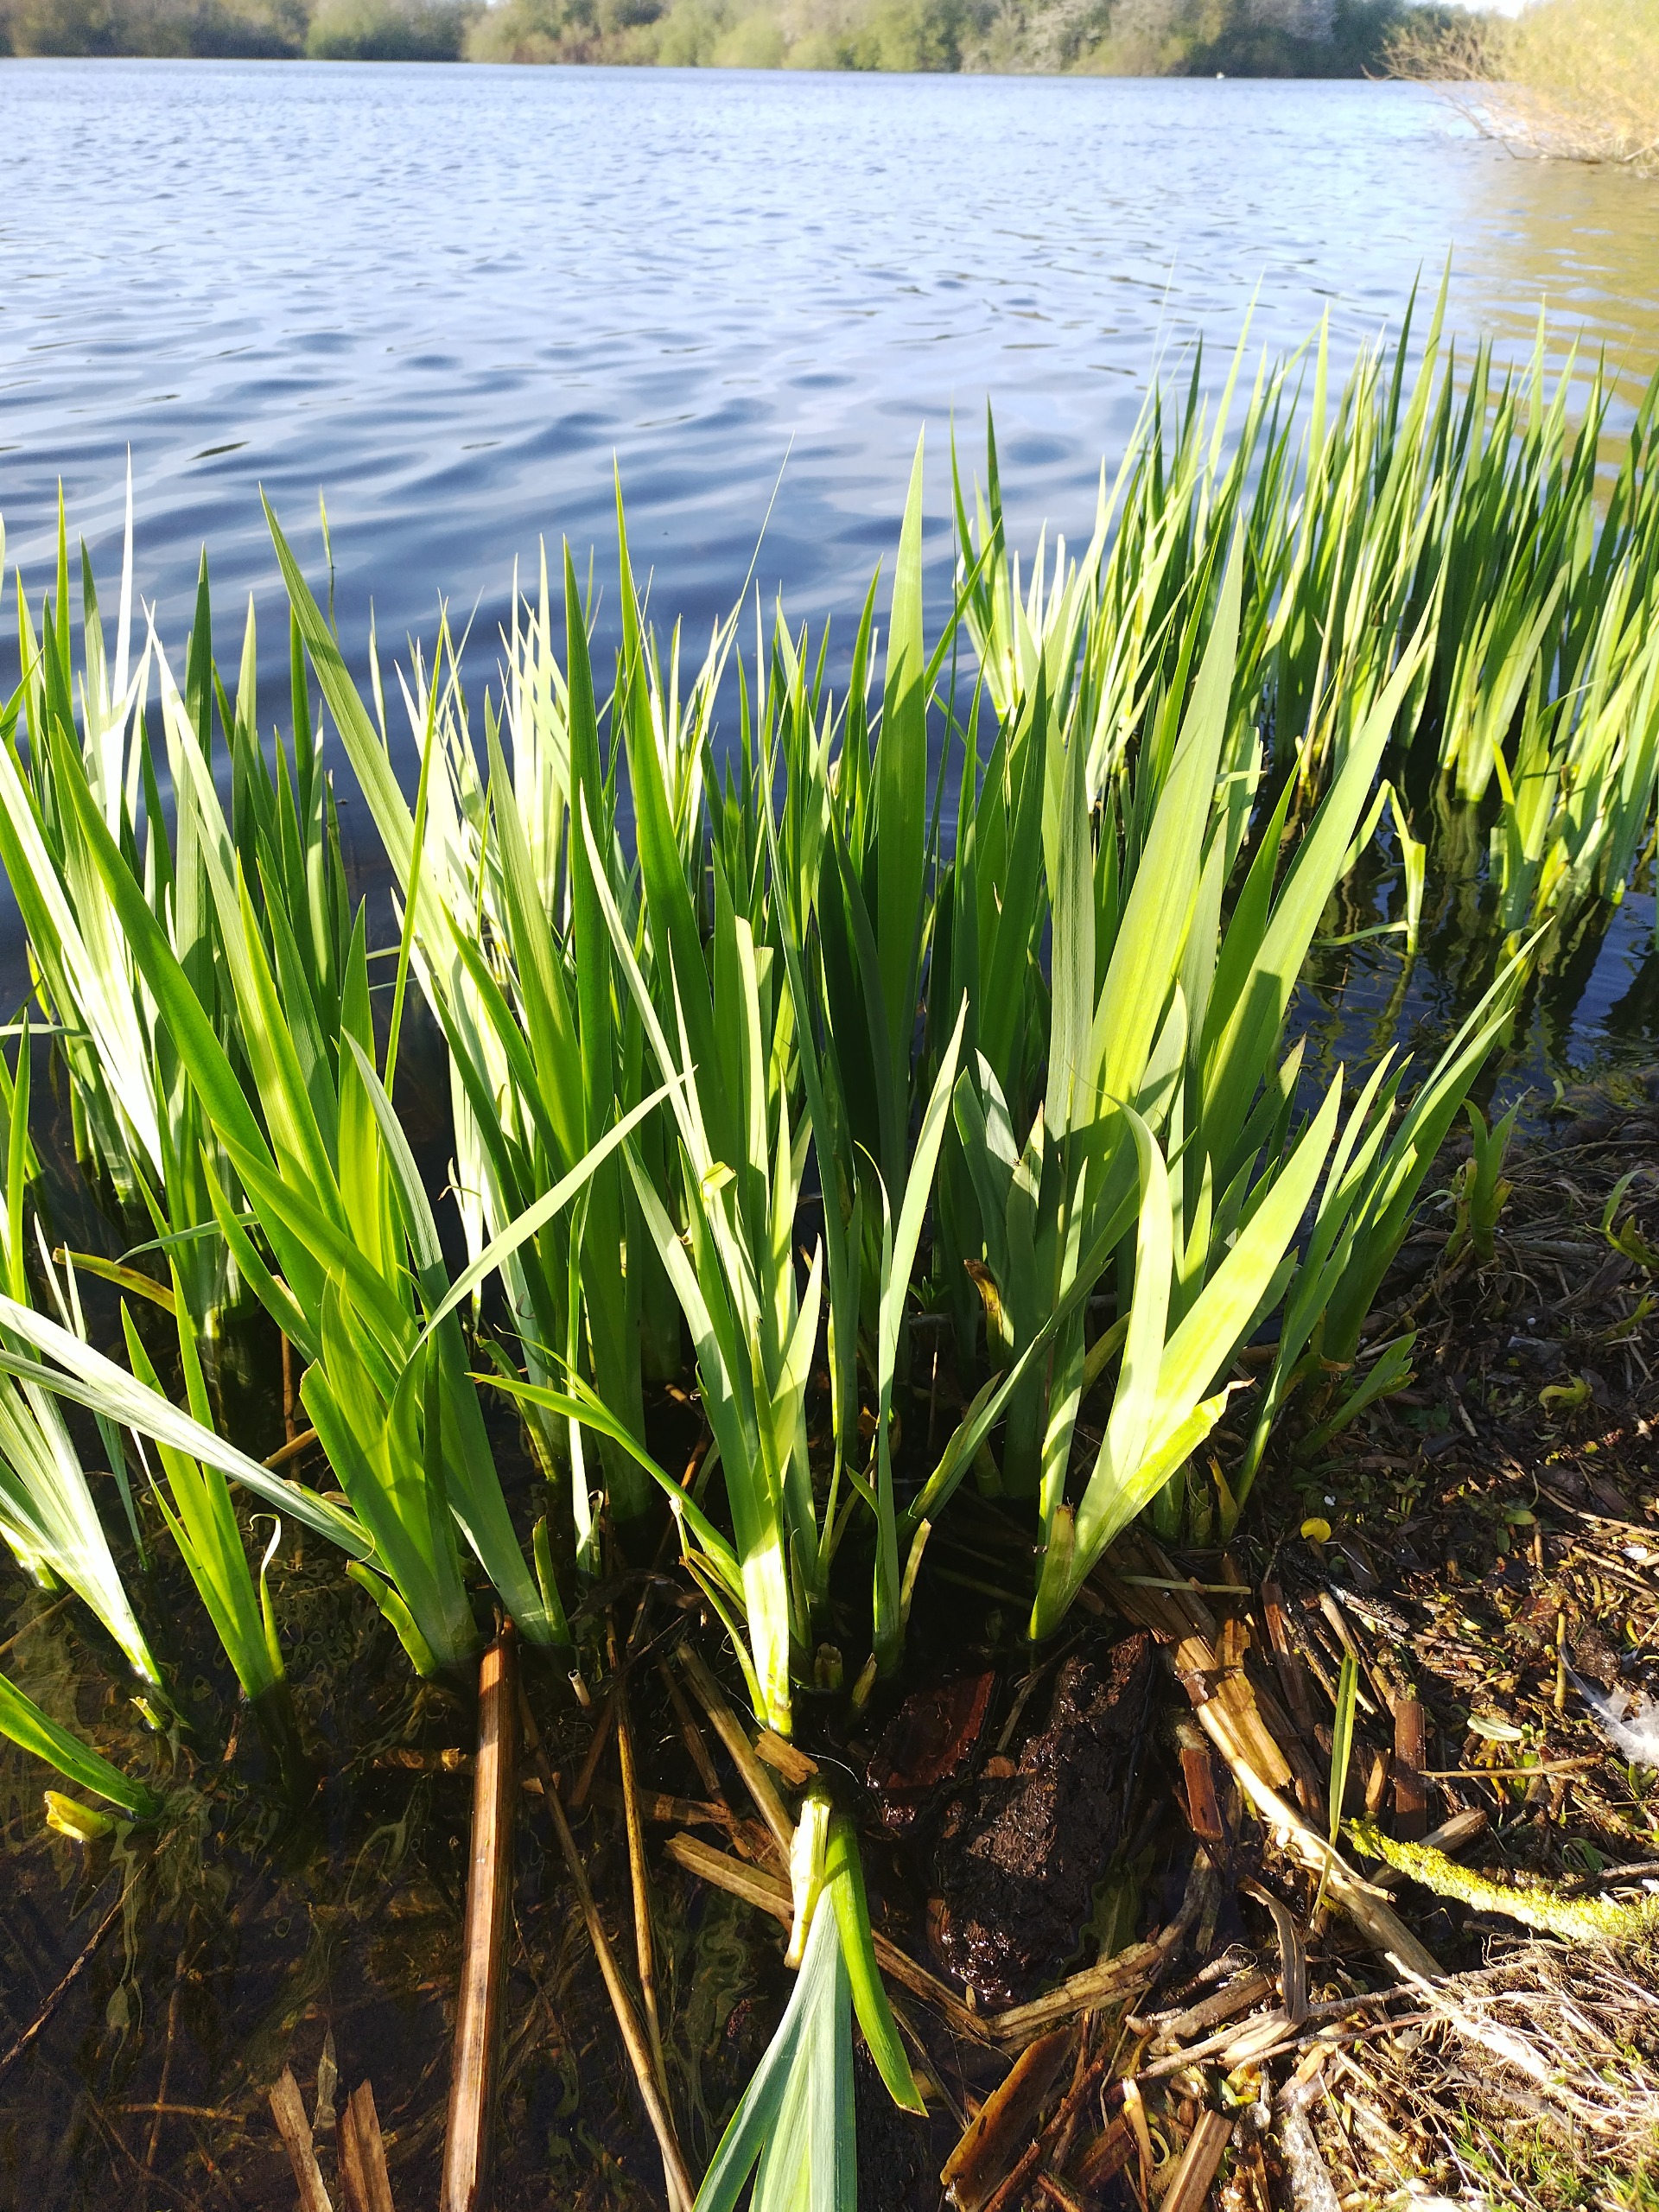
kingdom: Plantae
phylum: Tracheophyta
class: Liliopsida
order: Asparagales
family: Iridaceae
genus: Iris
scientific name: Iris pseudacorus
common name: Gul iris
